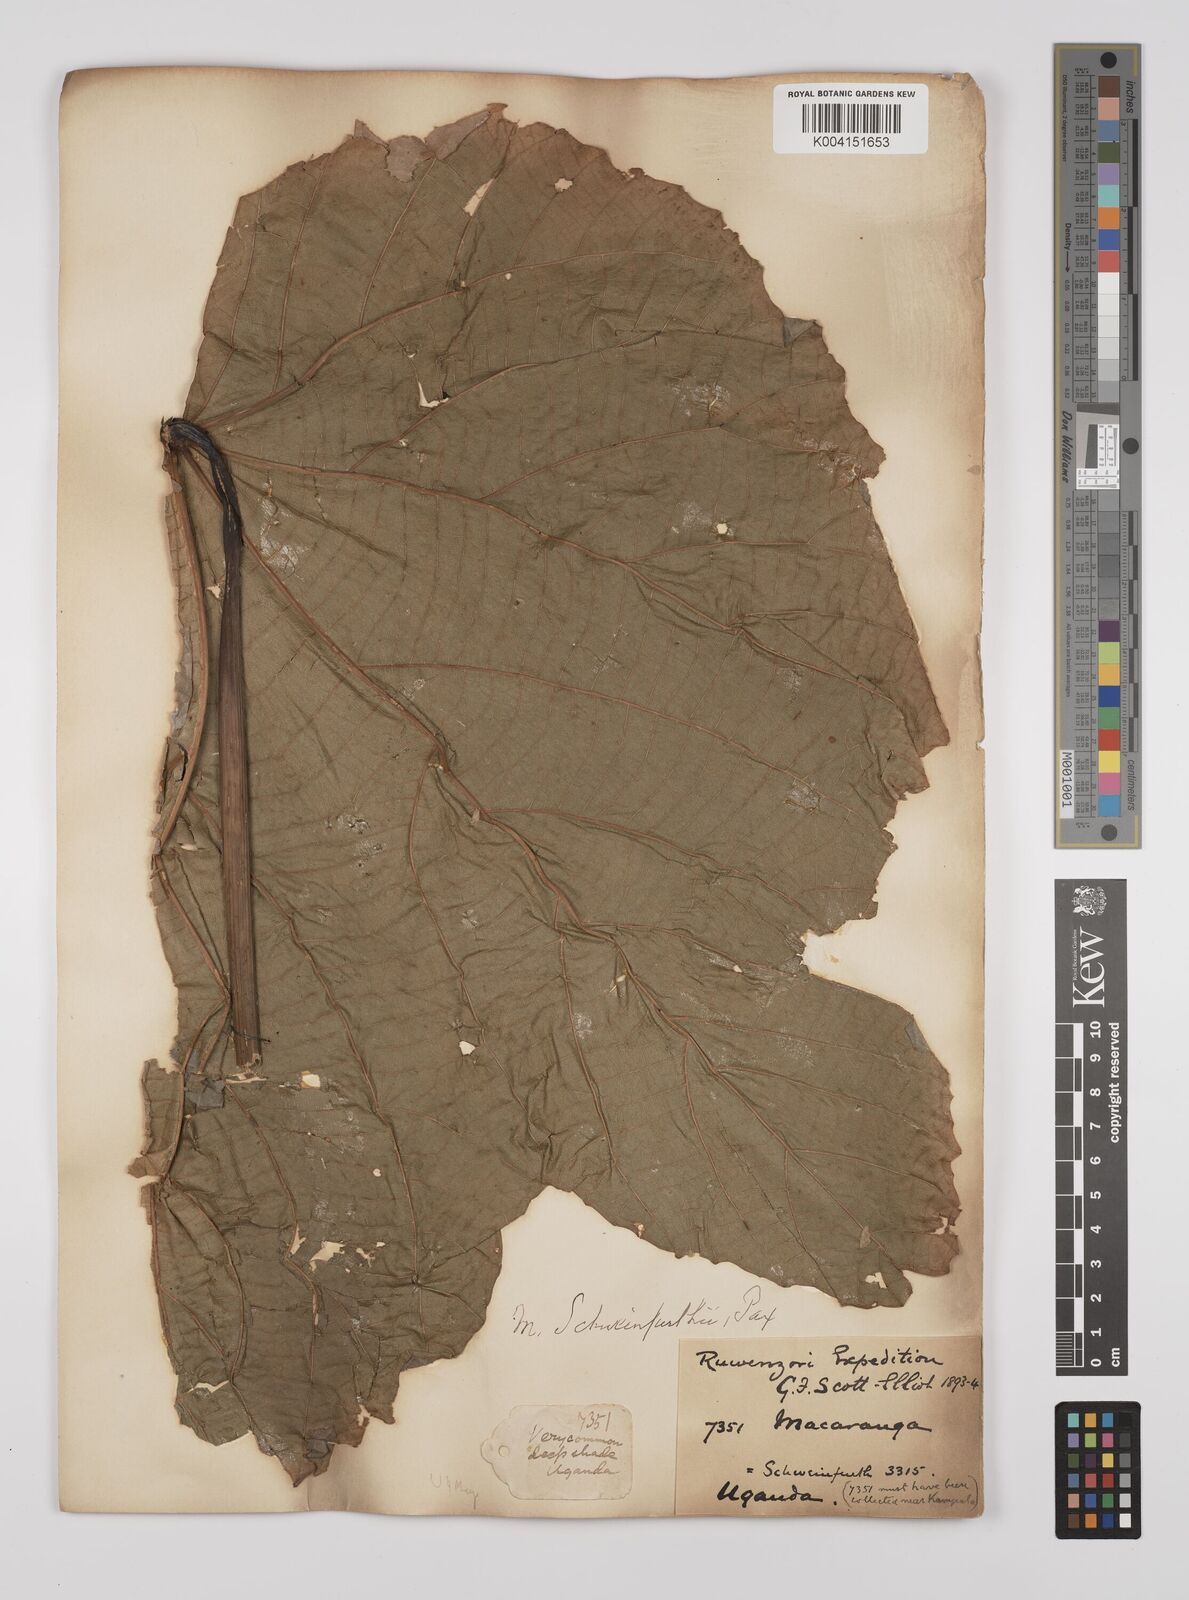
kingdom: Plantae
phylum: Tracheophyta
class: Magnoliopsida
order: Malpighiales
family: Euphorbiaceae
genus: Macaranga
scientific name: Macaranga schweinfurthii
